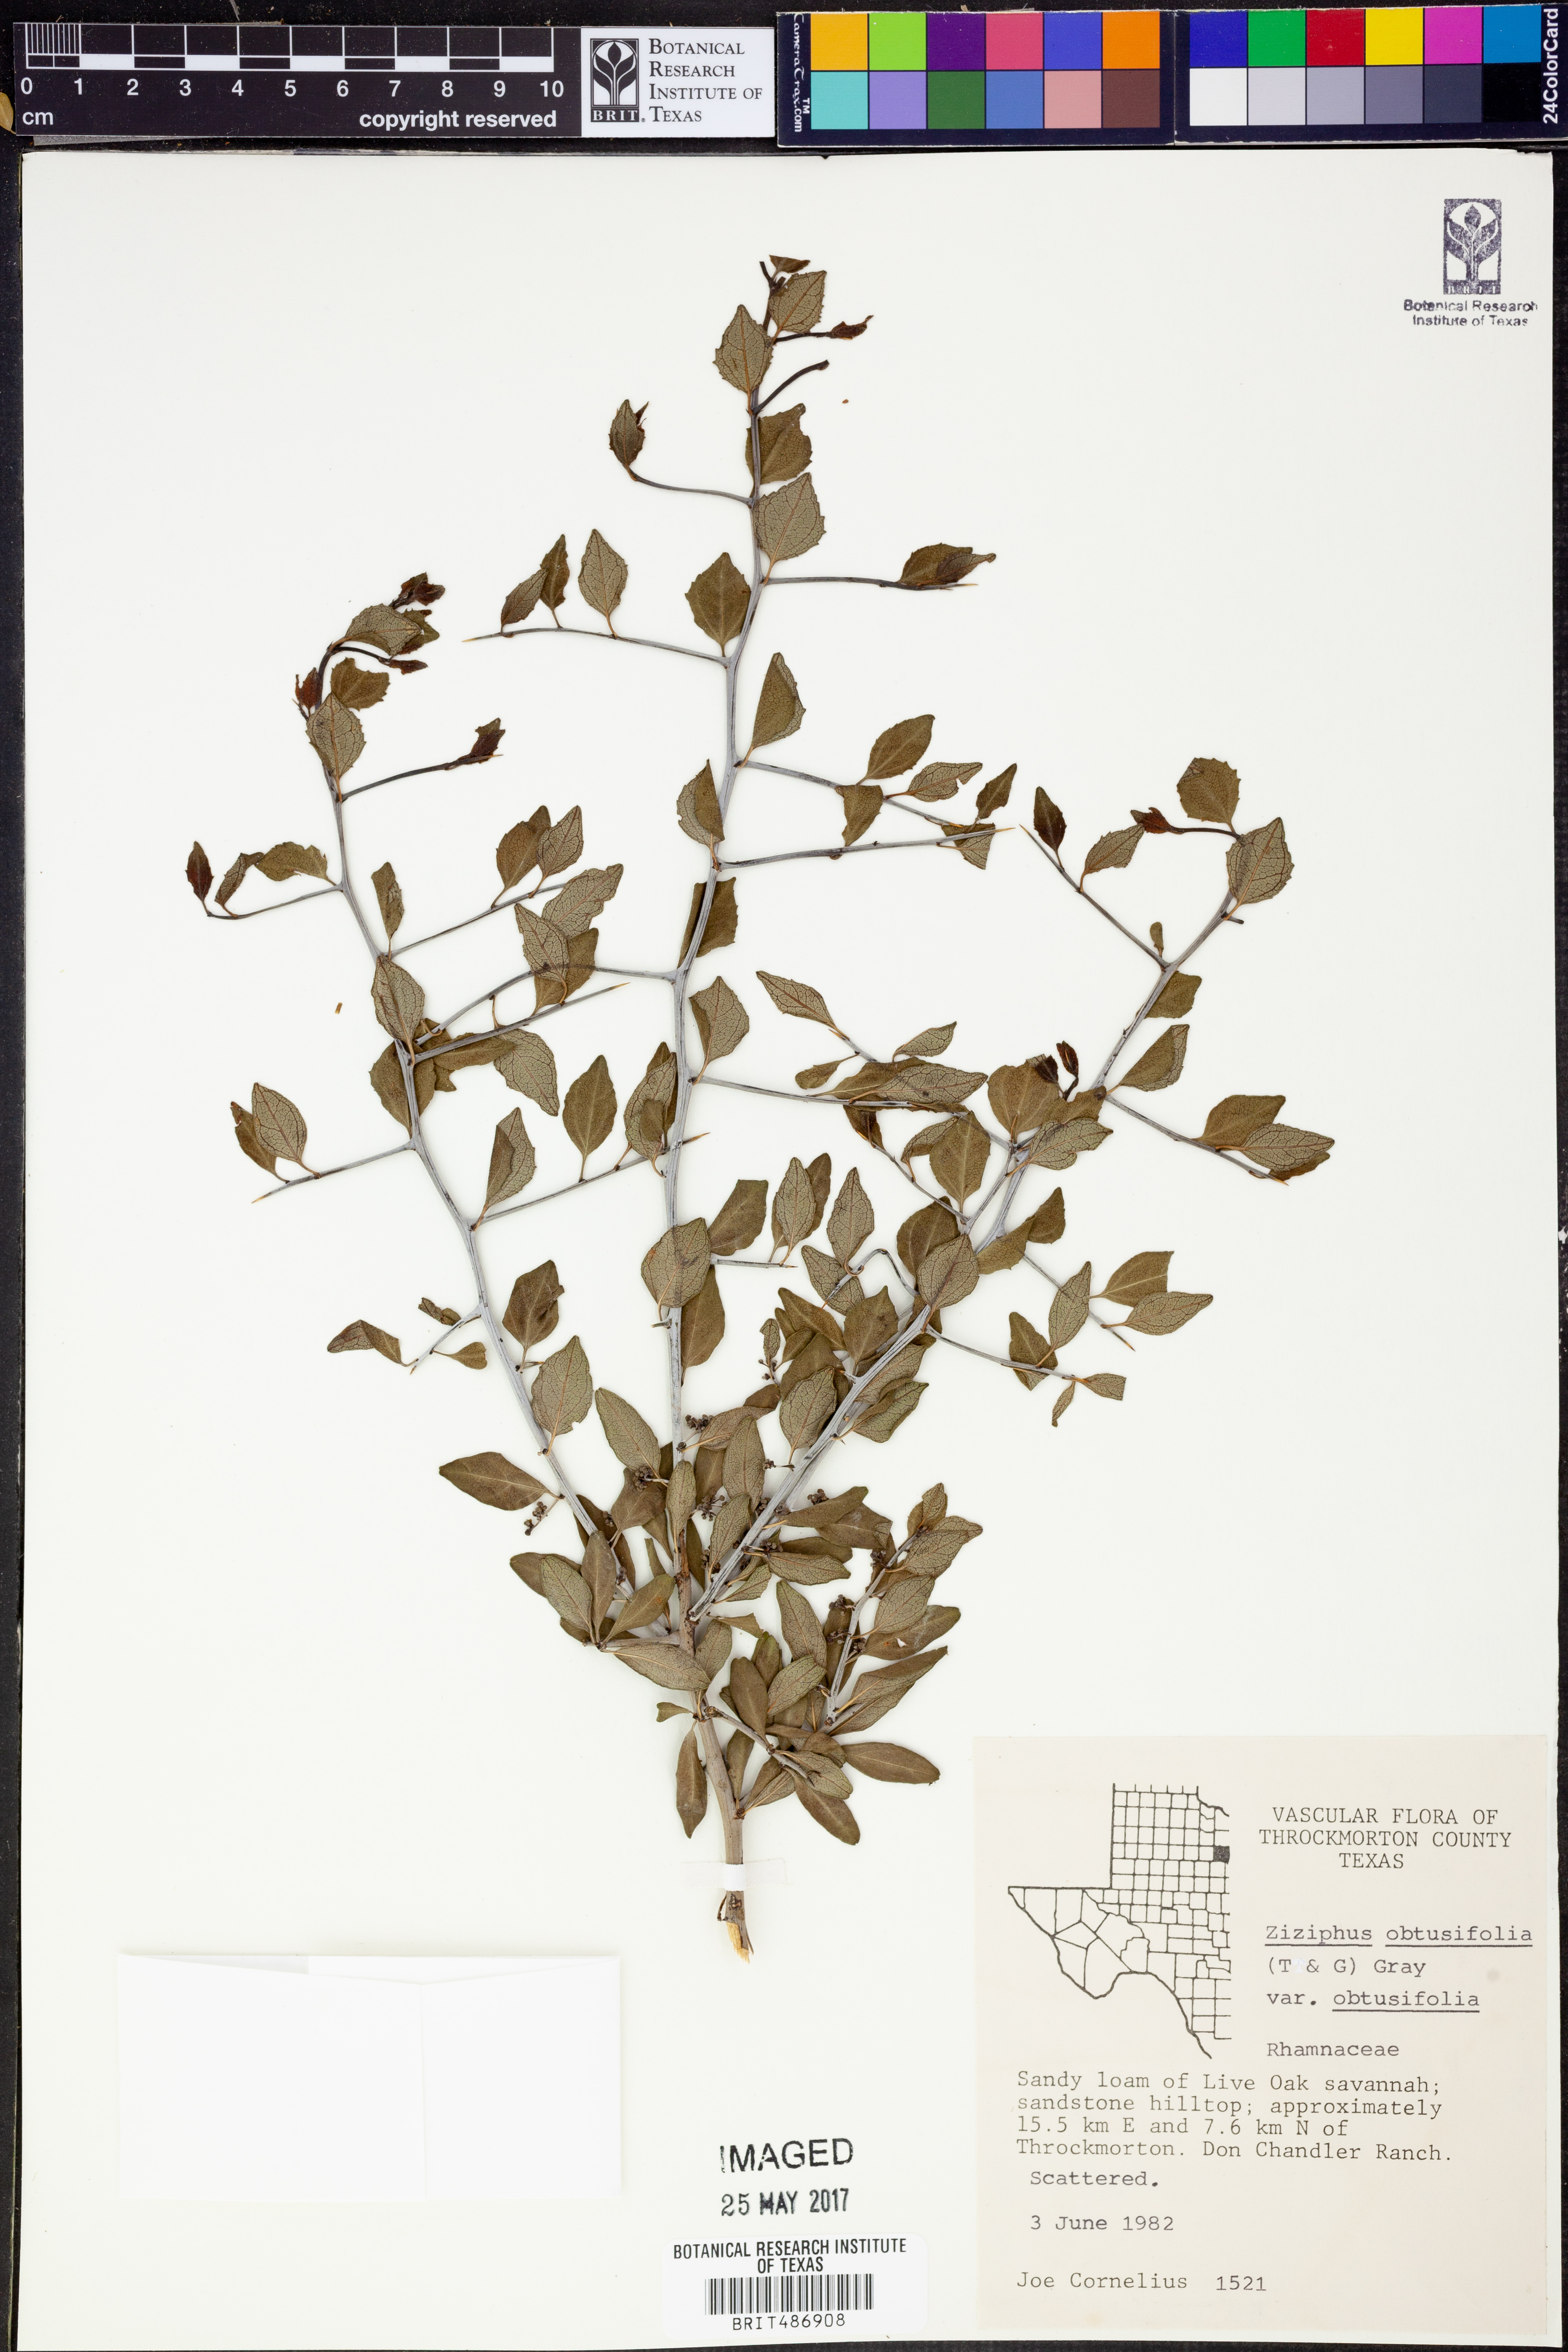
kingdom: Plantae
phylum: Tracheophyta
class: Magnoliopsida
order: Rosales
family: Rhamnaceae
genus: Sarcomphalus
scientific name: Sarcomphalus obtusifolius
